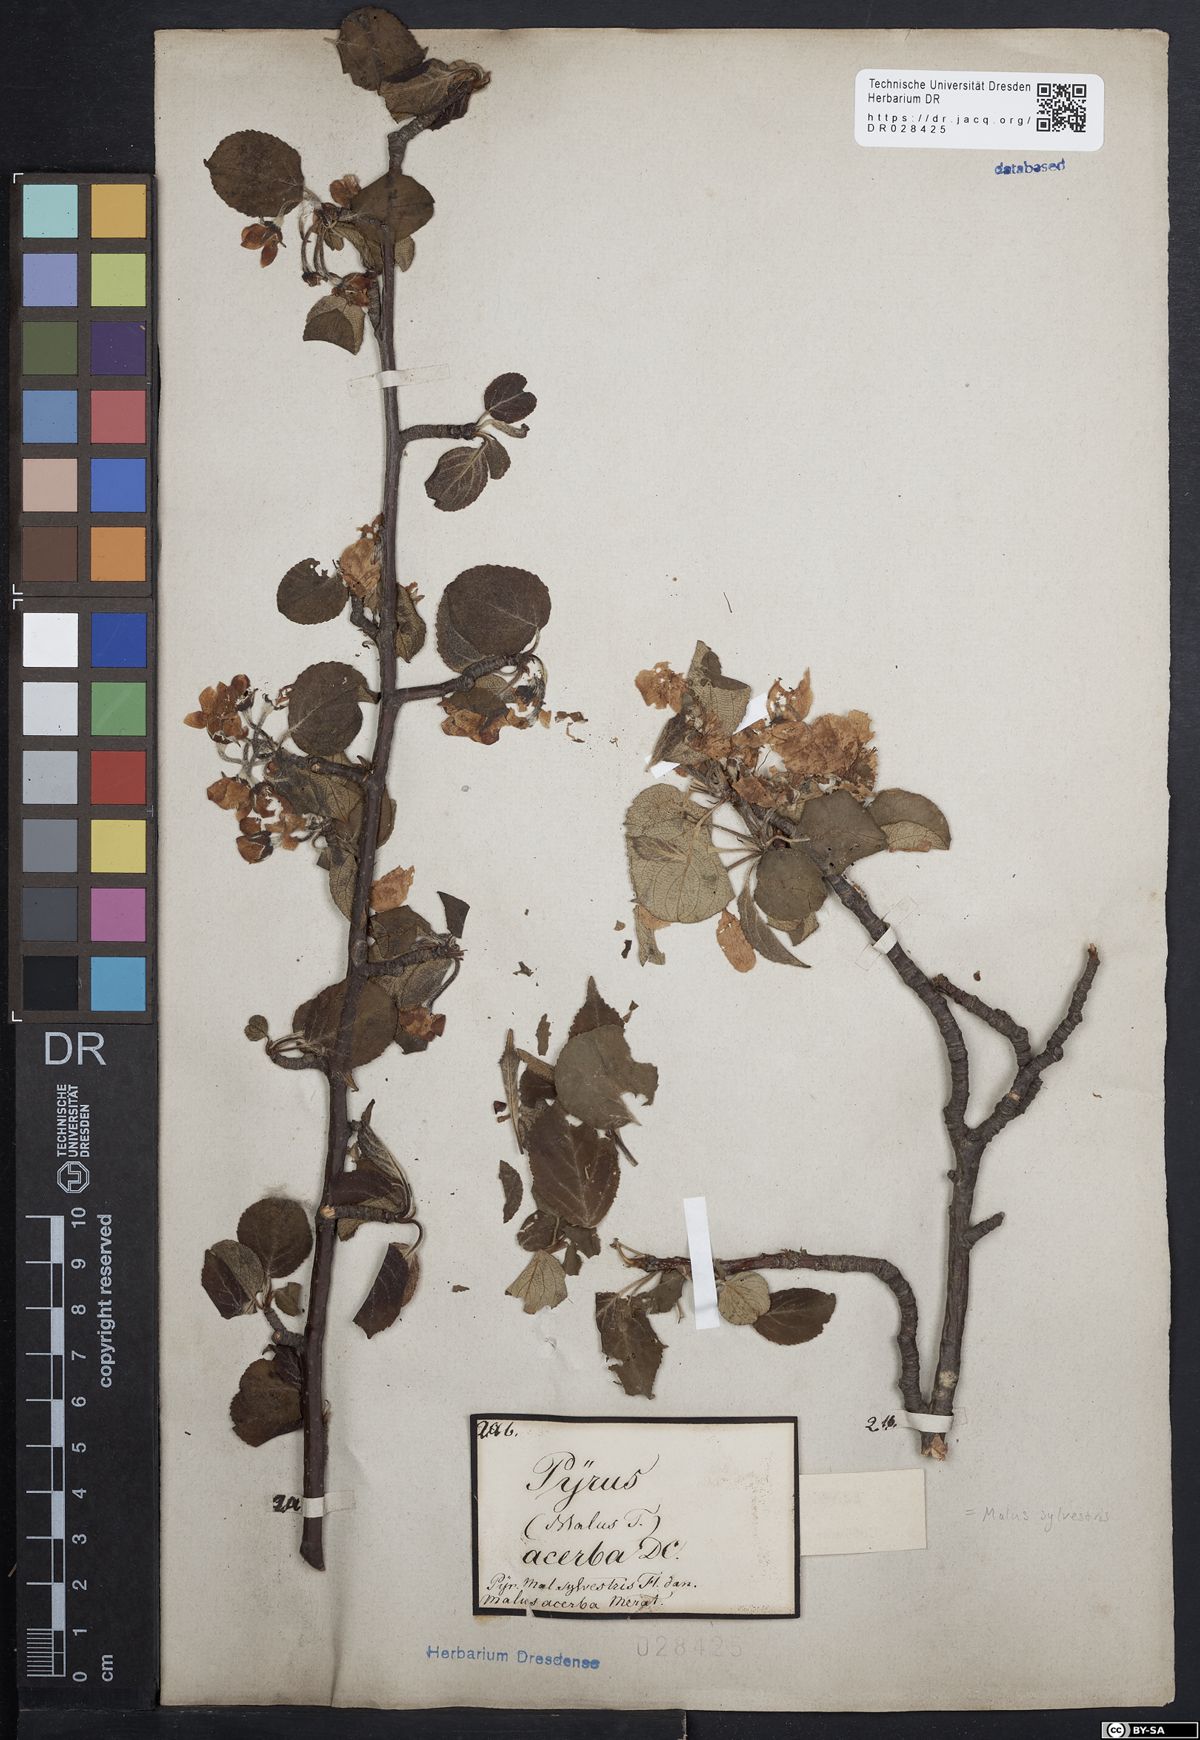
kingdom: Plantae
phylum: Tracheophyta
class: Magnoliopsida
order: Rosales
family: Rosaceae
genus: Malus
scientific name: Malus sylvestris
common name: Crab apple
